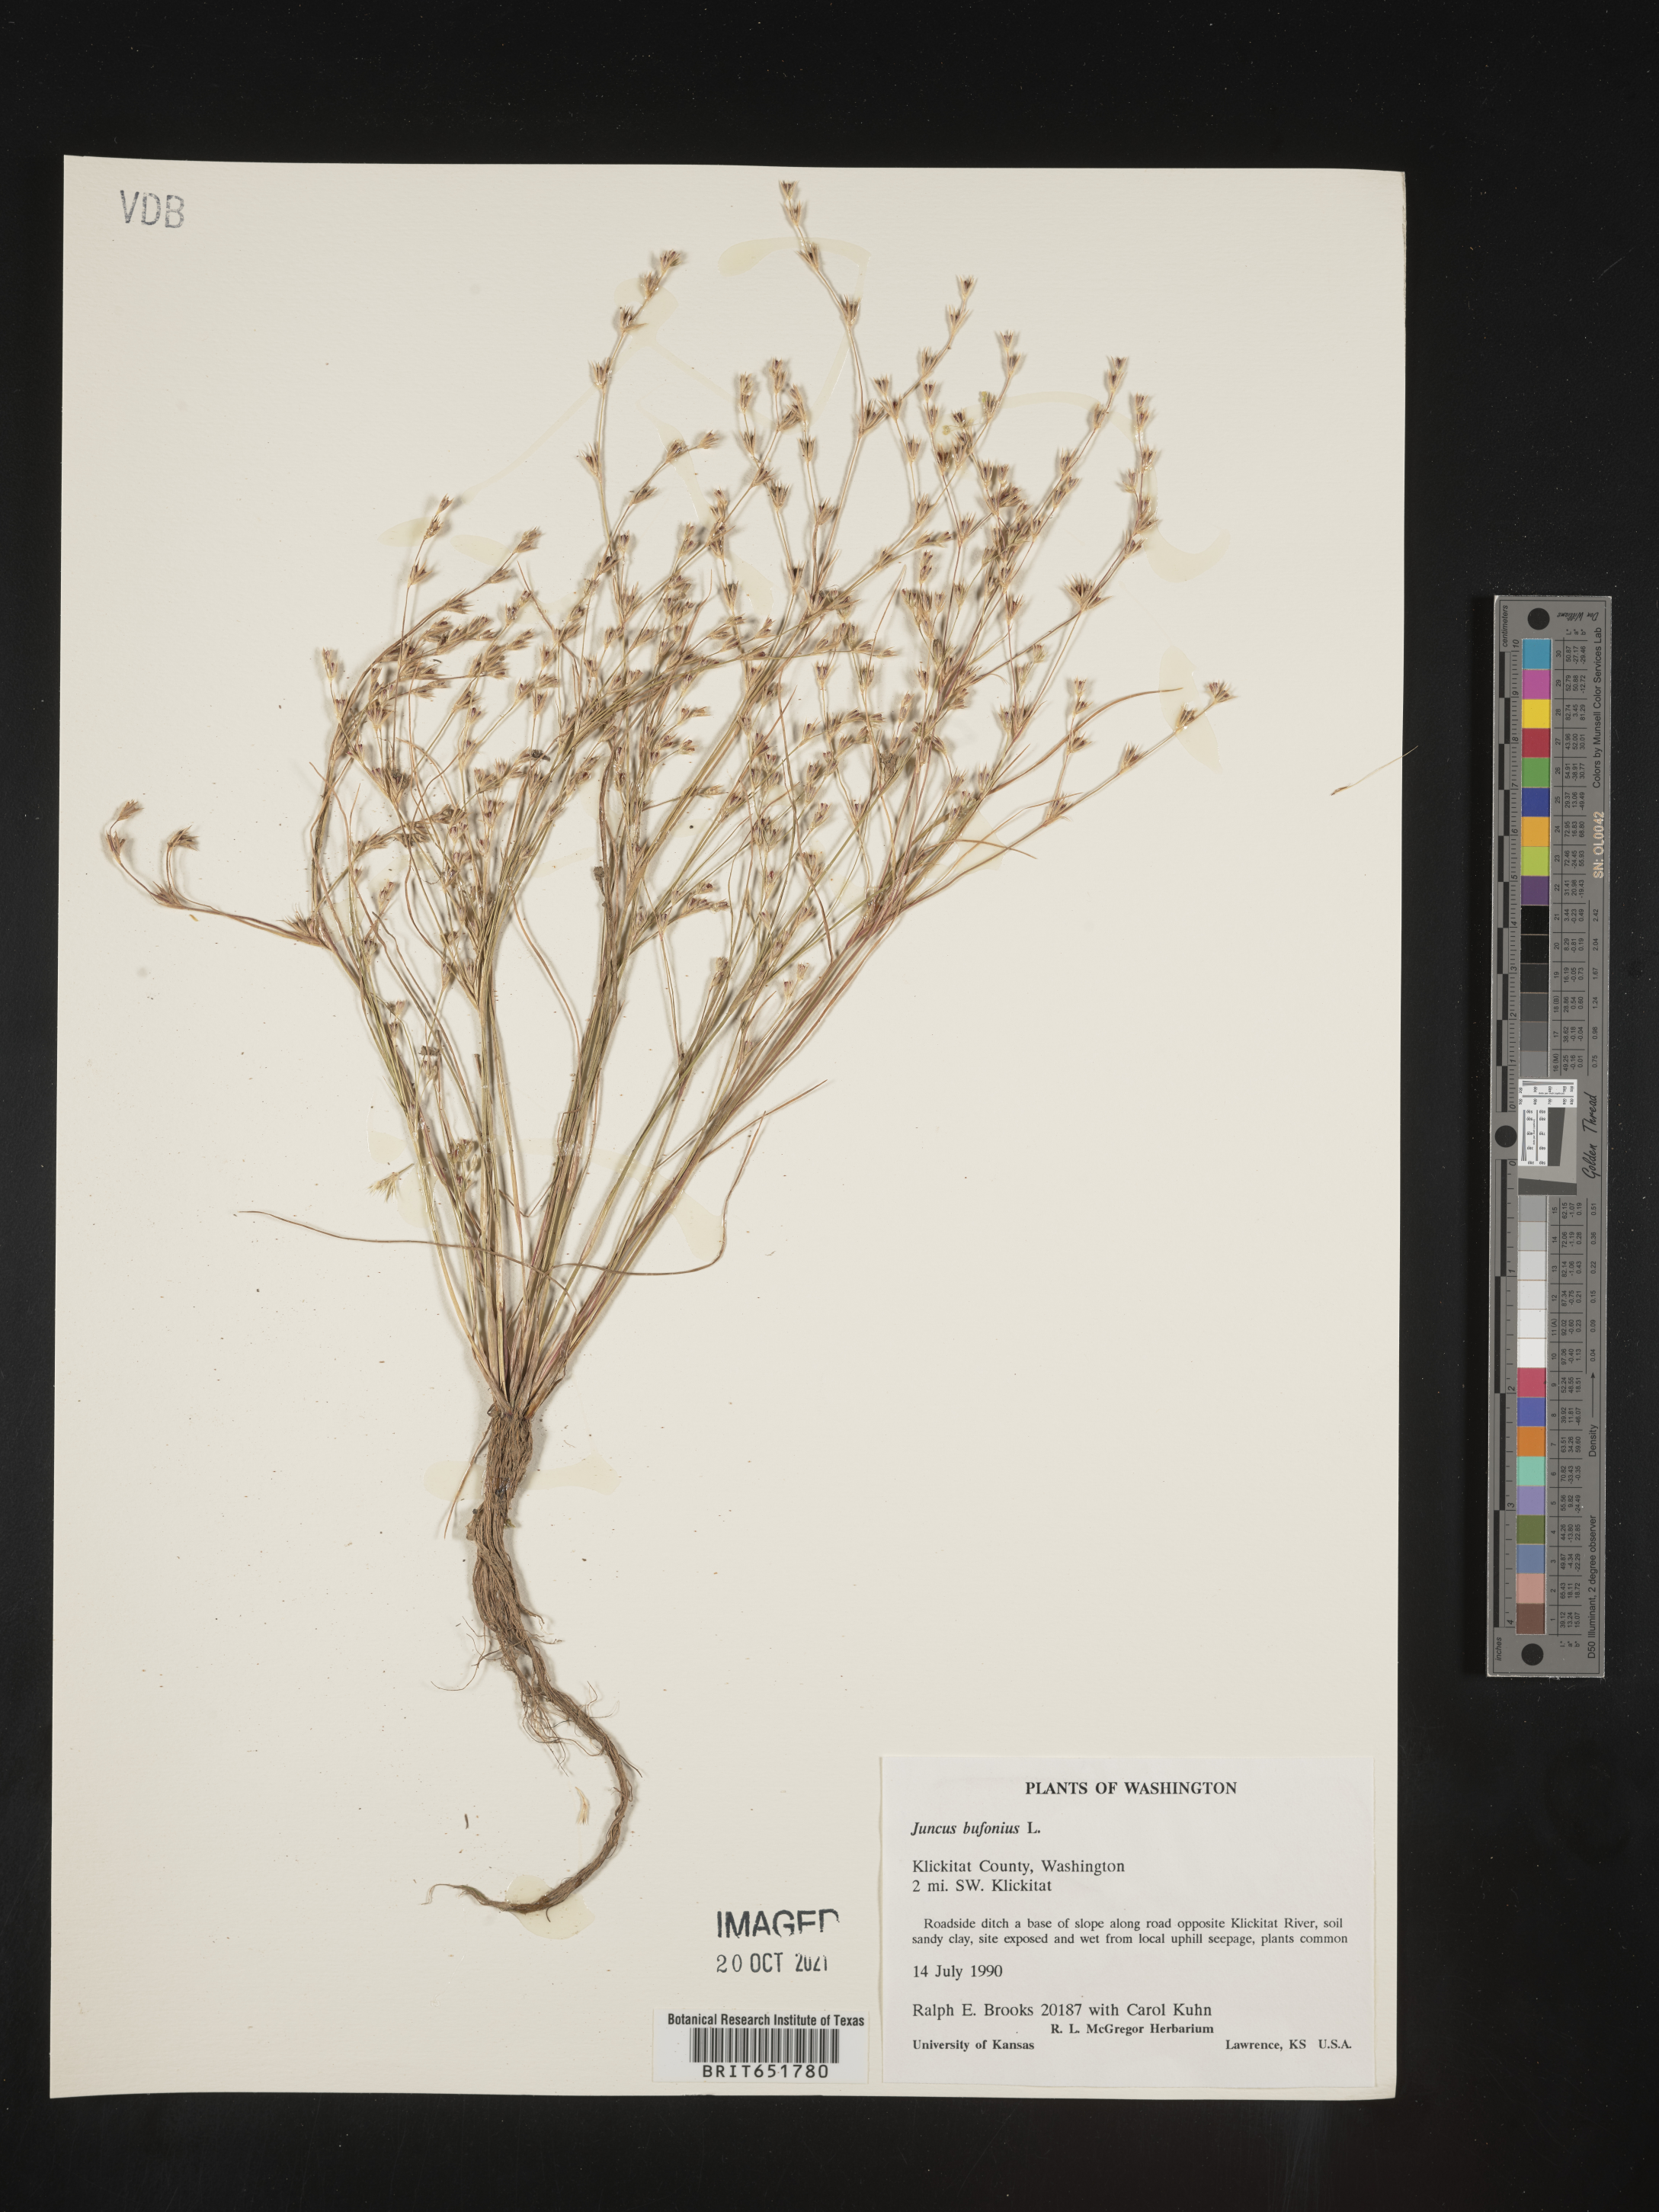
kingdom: Plantae
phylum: Tracheophyta
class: Liliopsida
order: Poales
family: Juncaceae
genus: Juncus
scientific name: Juncus bufonius
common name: Toad rush
